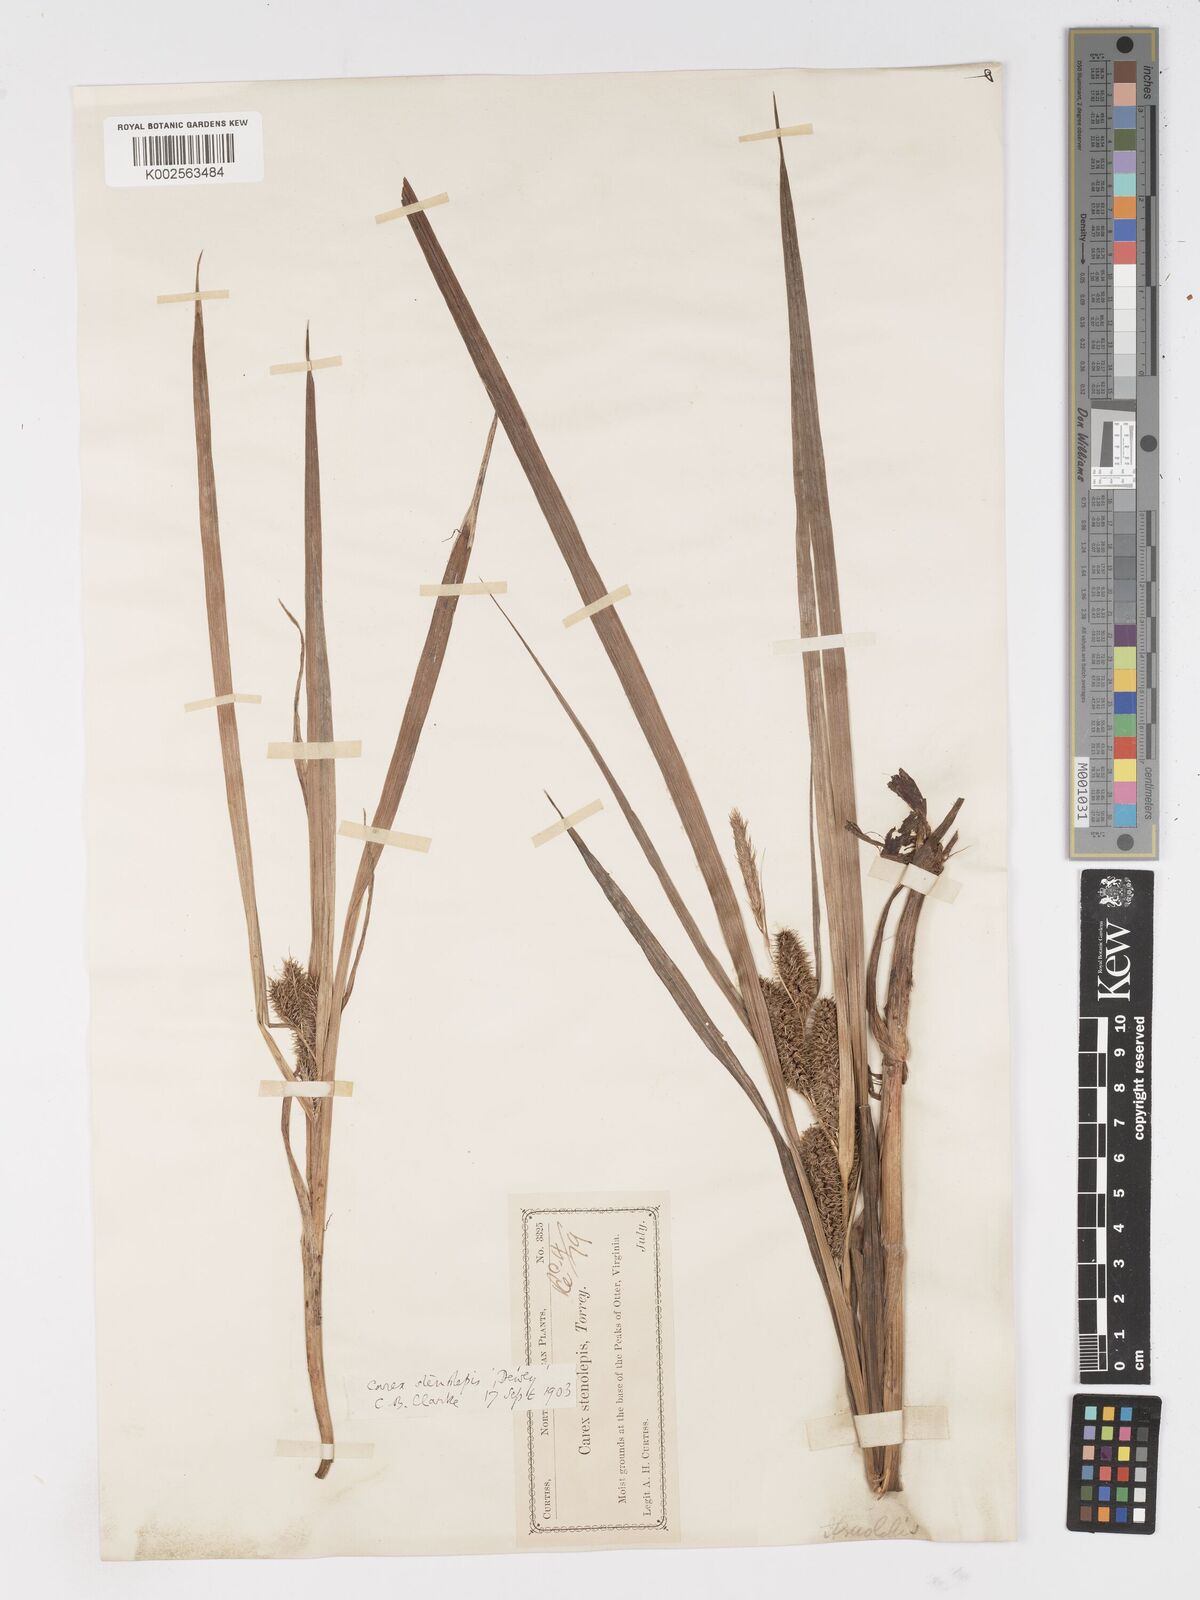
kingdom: Plantae
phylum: Tracheophyta
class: Liliopsida
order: Poales
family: Cyperaceae
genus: Carex
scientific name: Carex frankii
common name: Frank's sedge
